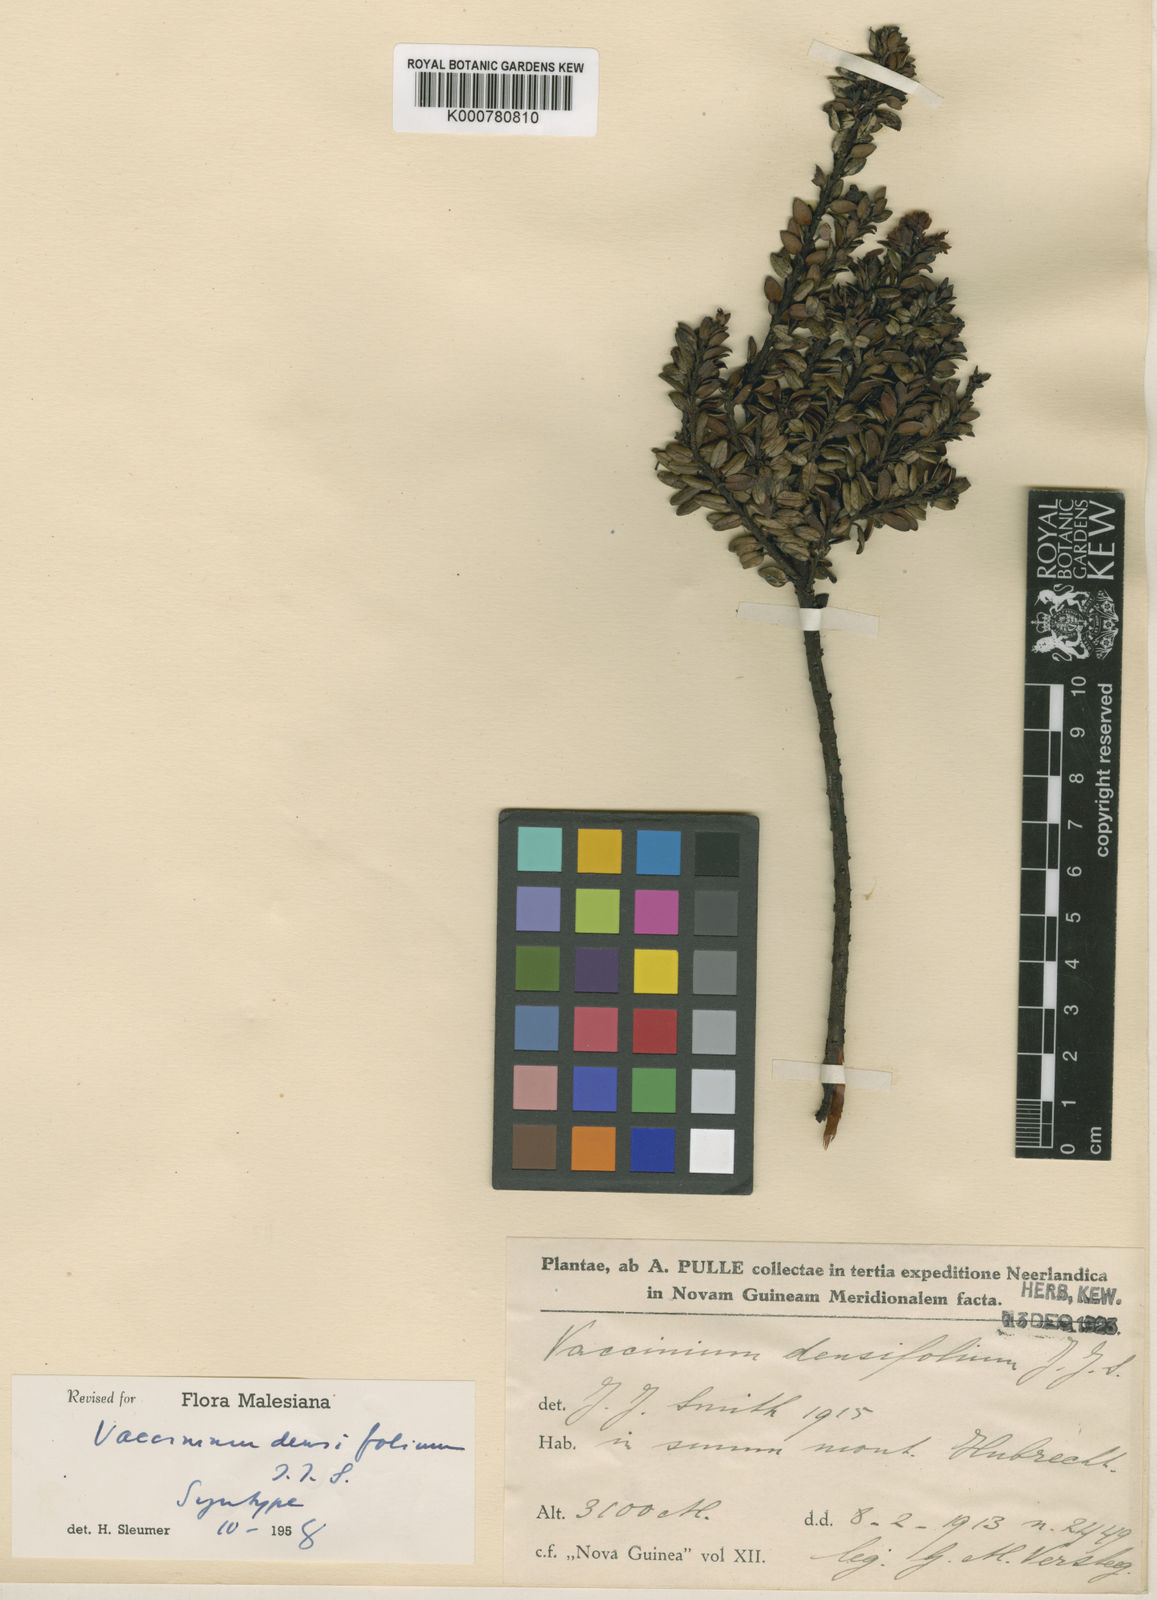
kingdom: Plantae
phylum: Tracheophyta
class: Magnoliopsida
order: Ericales
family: Ericaceae
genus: Vaccinium
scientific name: Vaccinium densifolium
